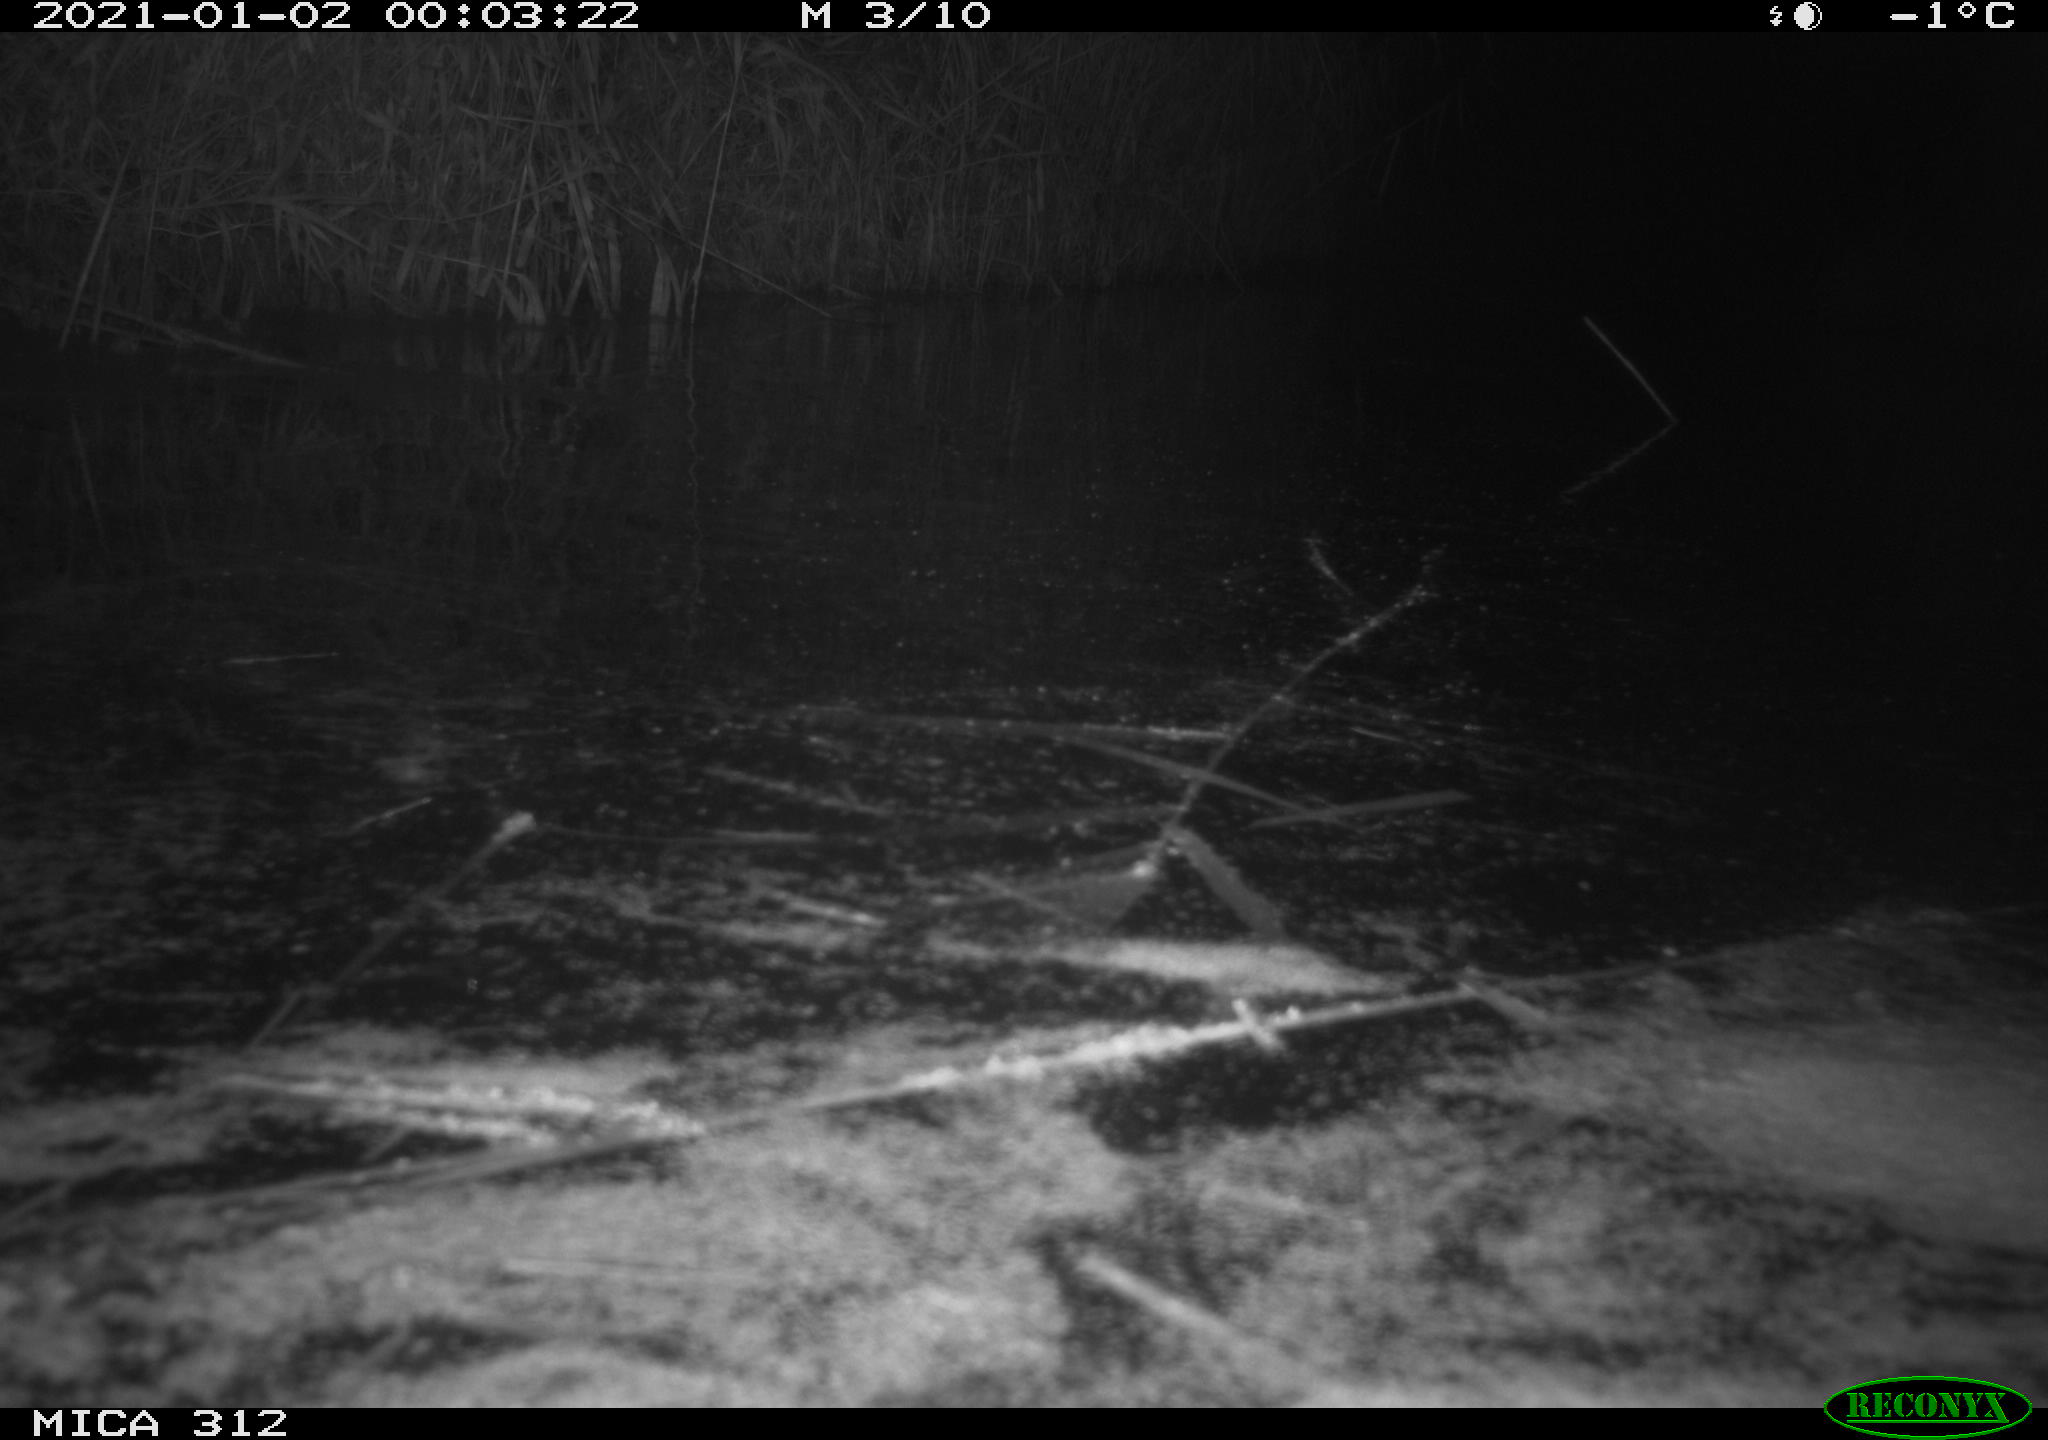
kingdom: Animalia
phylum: Chordata
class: Mammalia
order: Rodentia
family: Muridae
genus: Rattus
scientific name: Rattus norvegicus
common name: Brown rat
